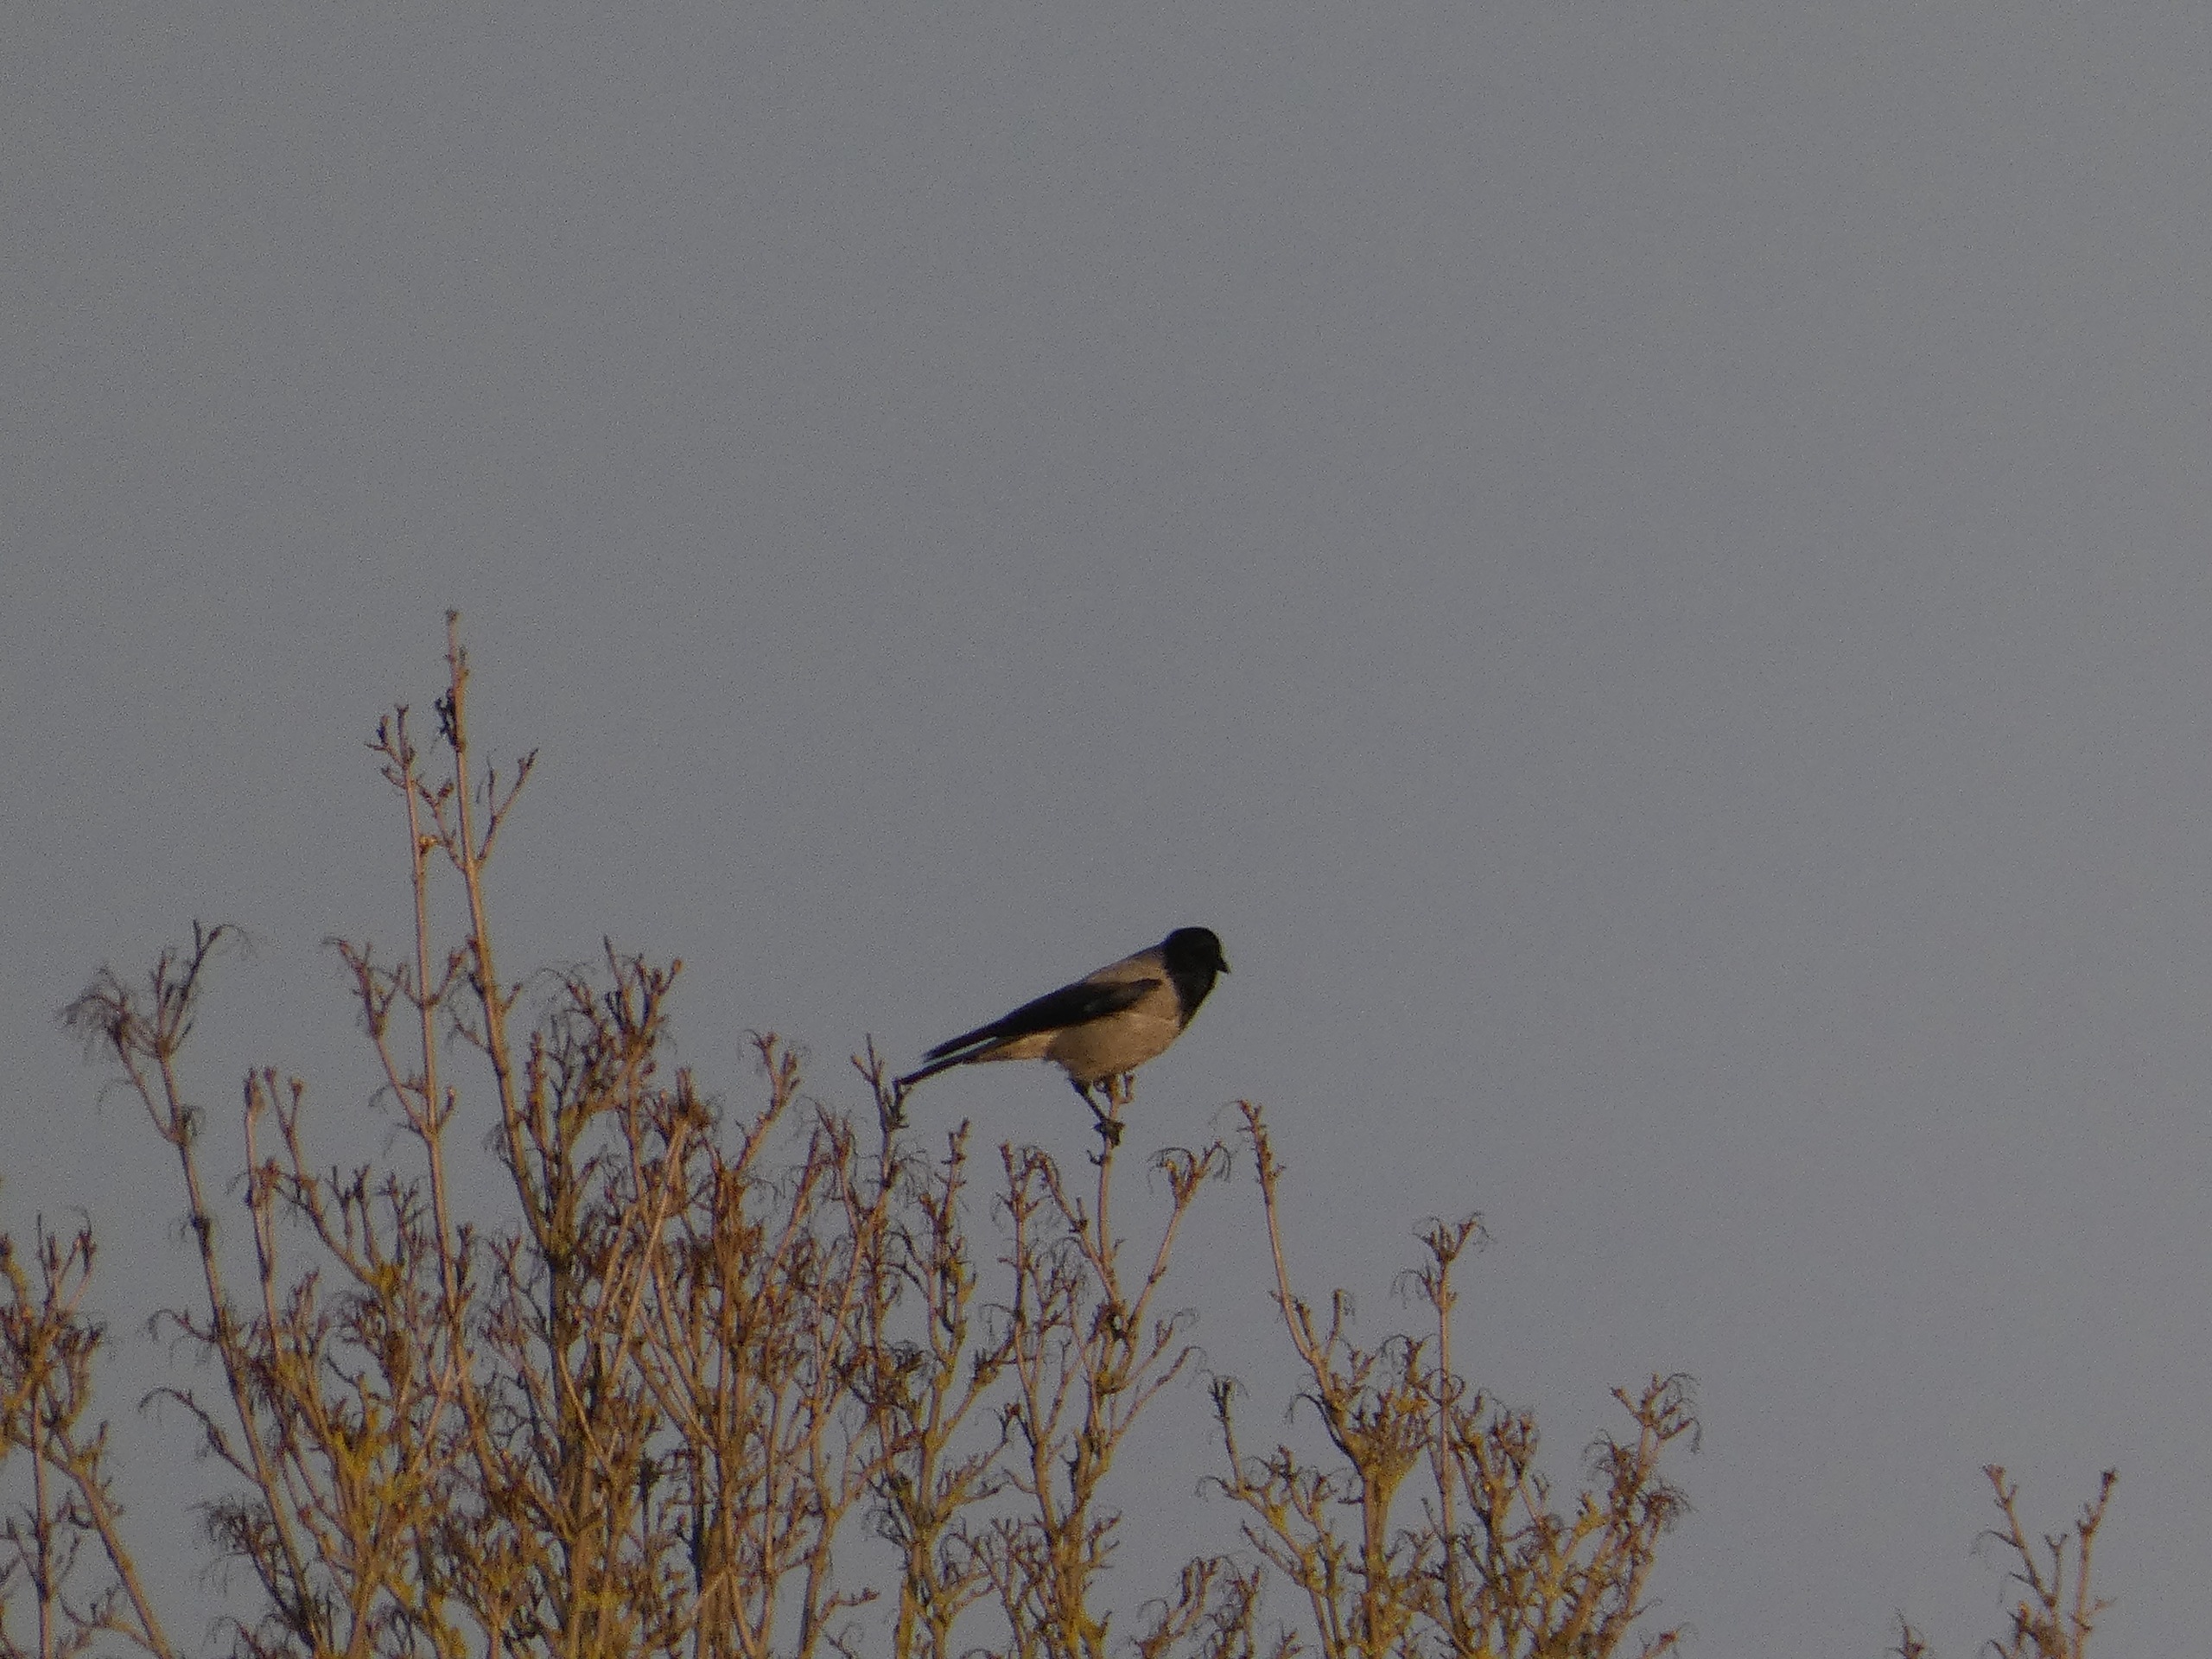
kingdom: Animalia
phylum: Chordata
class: Aves
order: Passeriformes
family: Corvidae
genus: Corvus
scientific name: Corvus cornix
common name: Gråkrage
